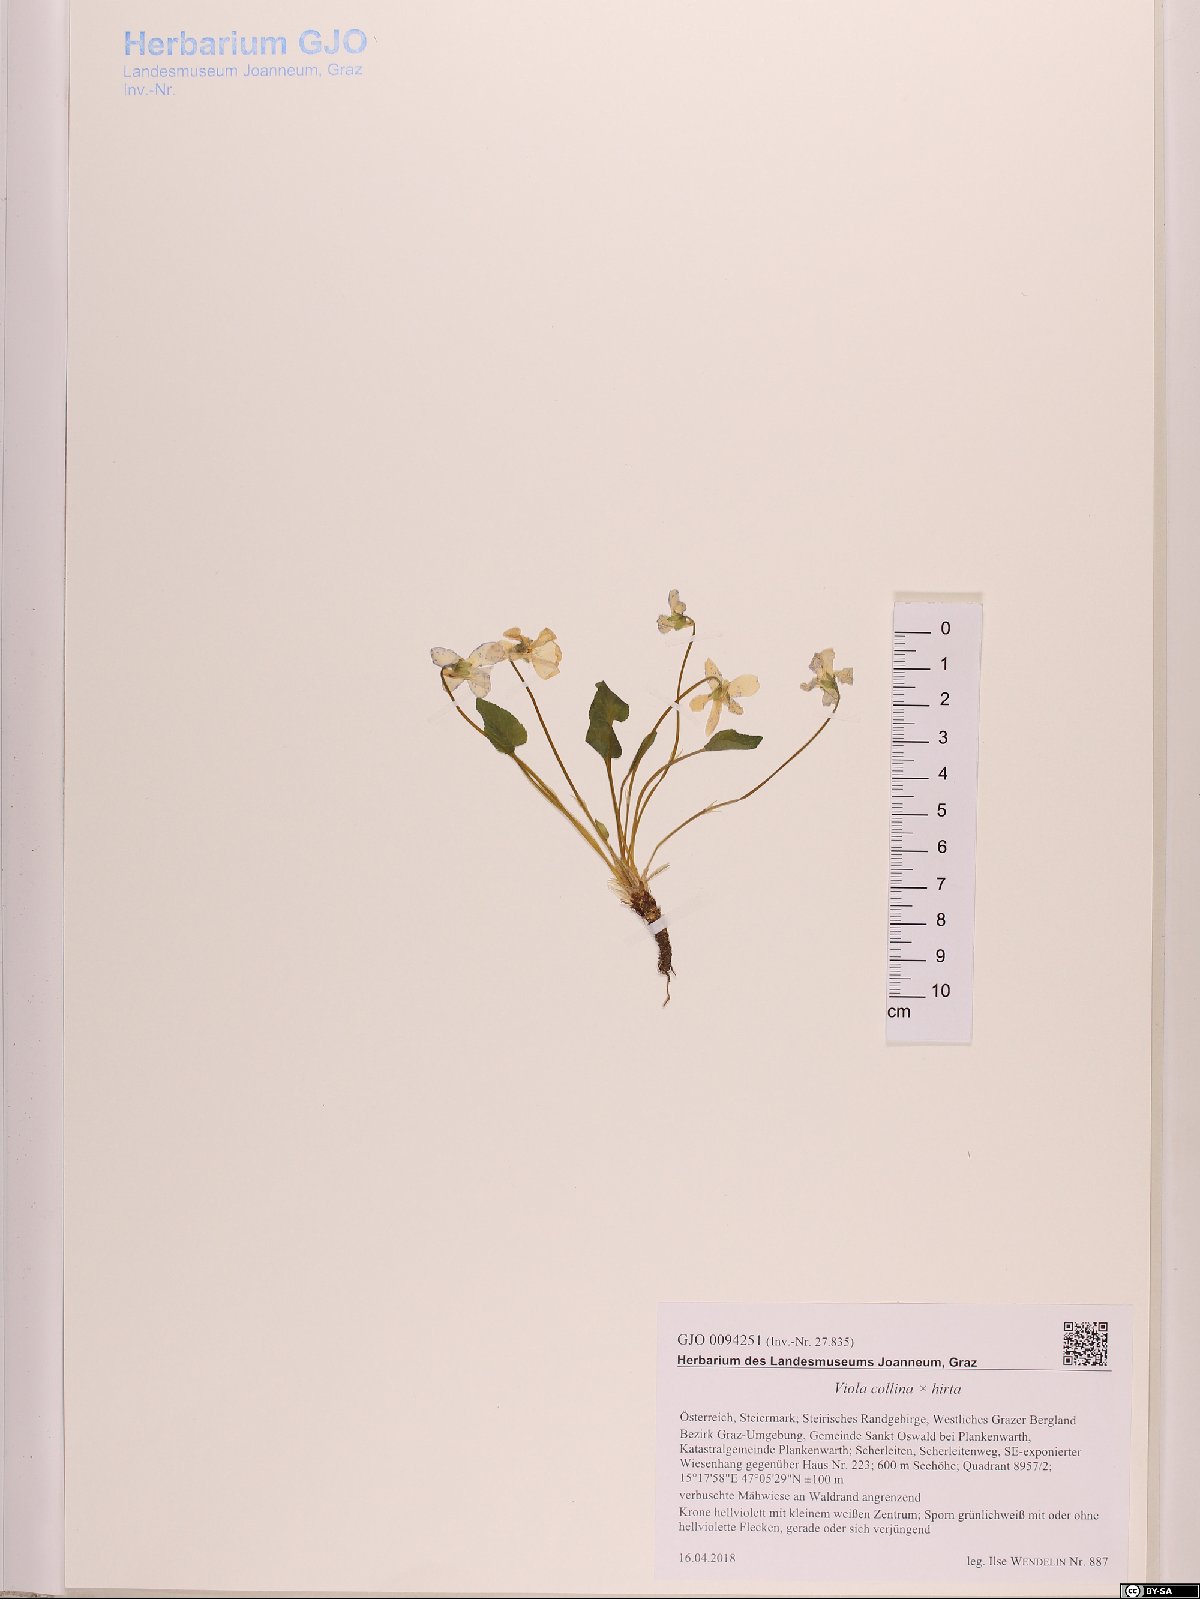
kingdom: Plantae
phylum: Tracheophyta
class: Magnoliopsida
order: Malpighiales
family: Violaceae
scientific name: Violaceae
